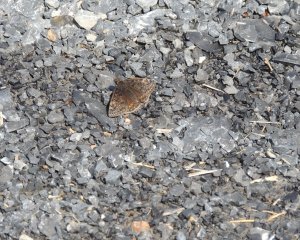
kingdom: Animalia
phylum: Arthropoda
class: Insecta
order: Lepidoptera
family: Hesperiidae
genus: Gesta
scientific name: Gesta
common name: Juvenal's Duskywing
